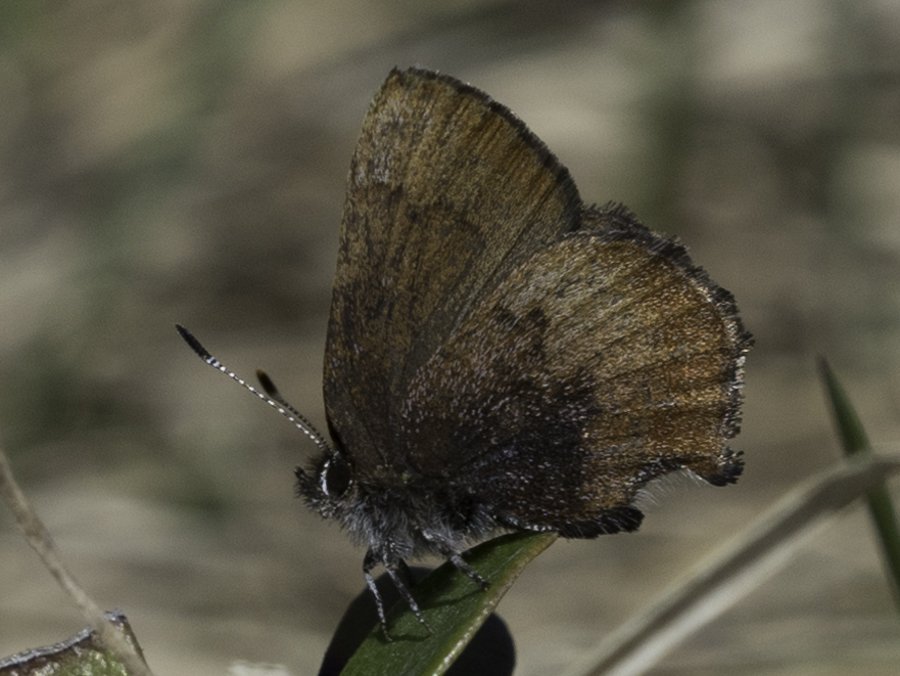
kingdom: Animalia
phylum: Arthropoda
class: Insecta
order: Lepidoptera
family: Lycaenidae
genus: Incisalia
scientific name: Incisalia irioides
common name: Brown Elfin
